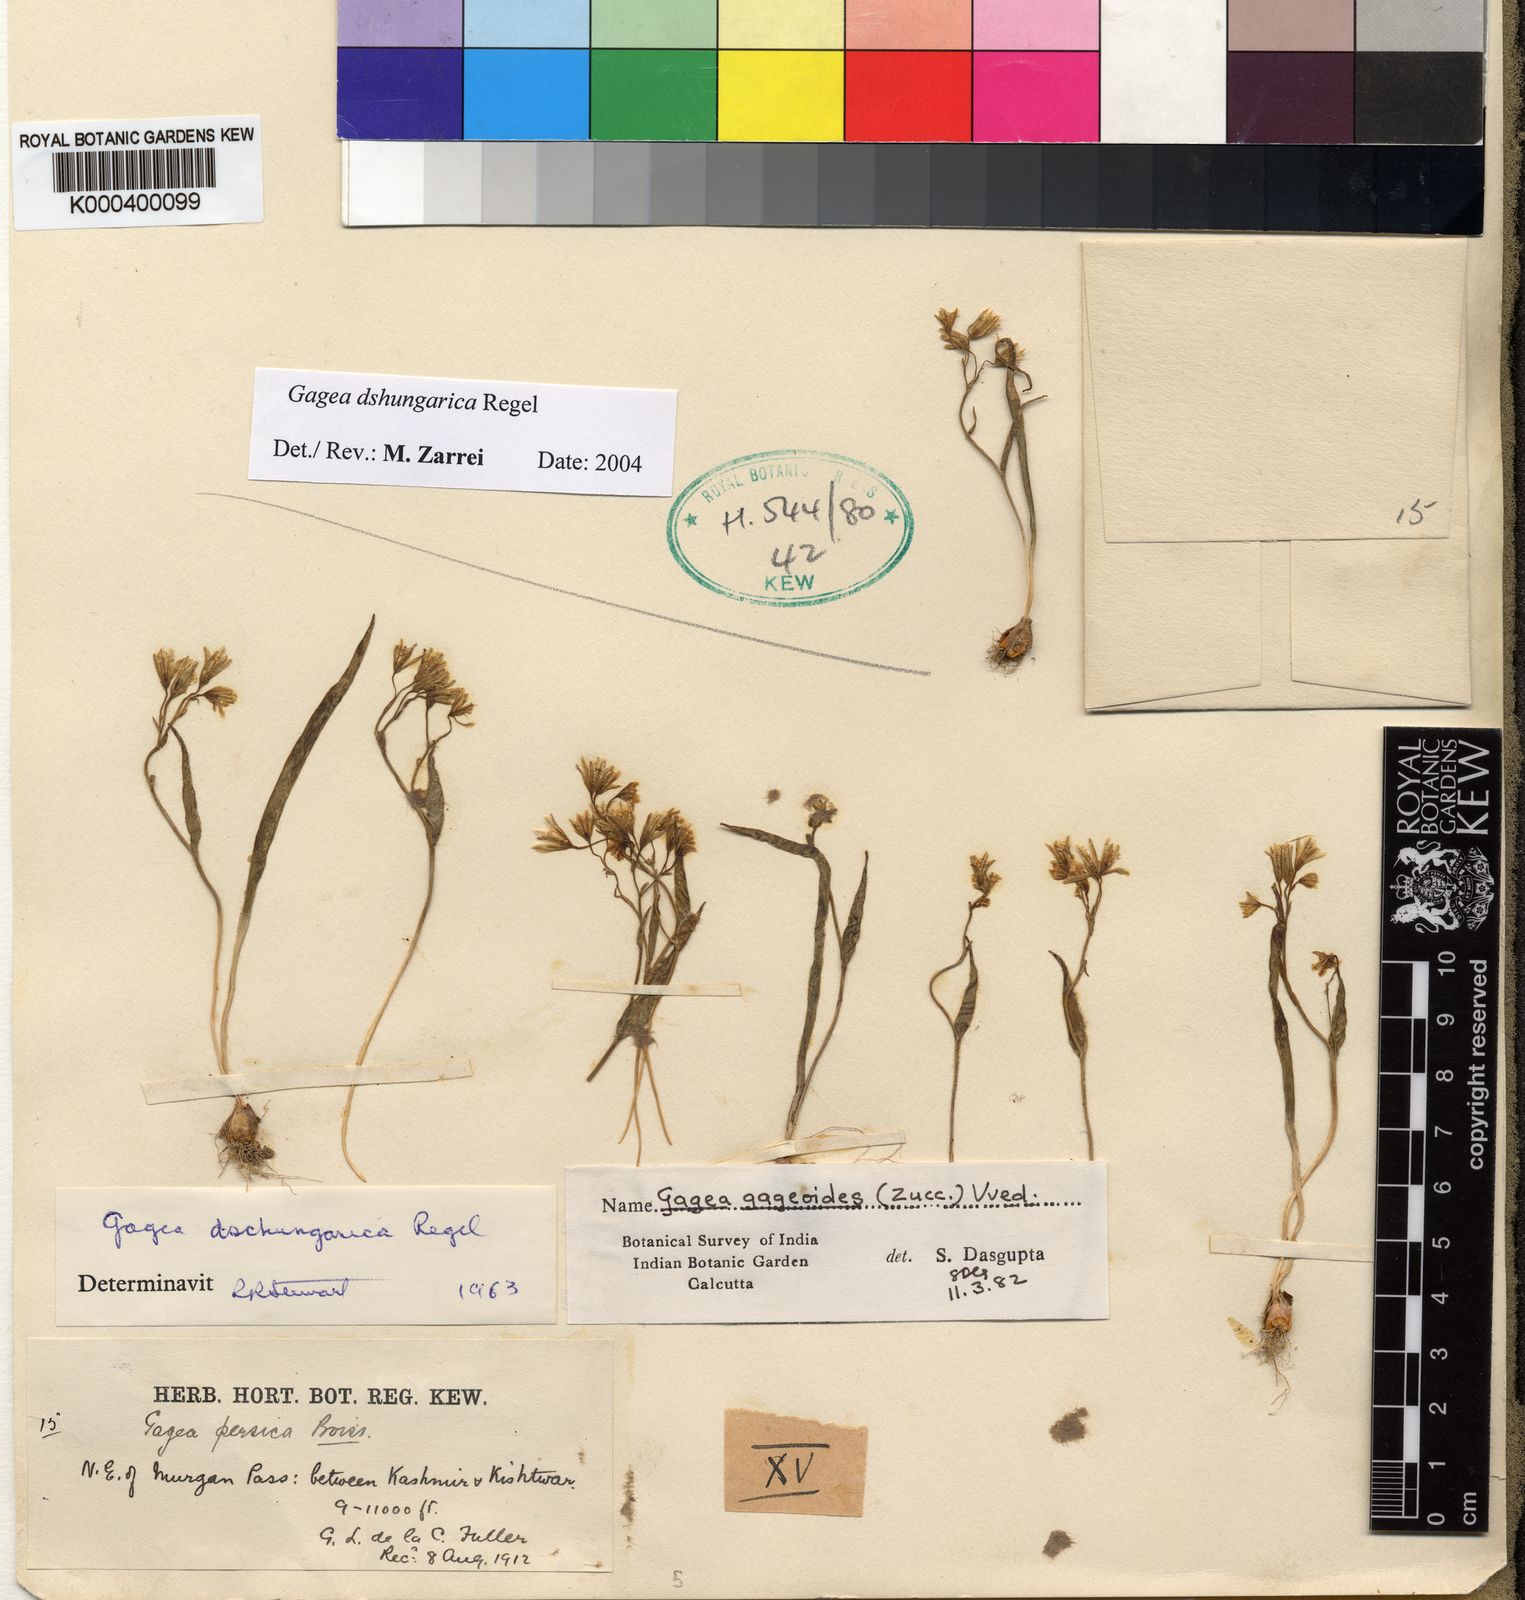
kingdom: Plantae
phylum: Tracheophyta
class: Liliopsida
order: Liliales
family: Liliaceae
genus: Gagea
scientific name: Gagea dschungarica
